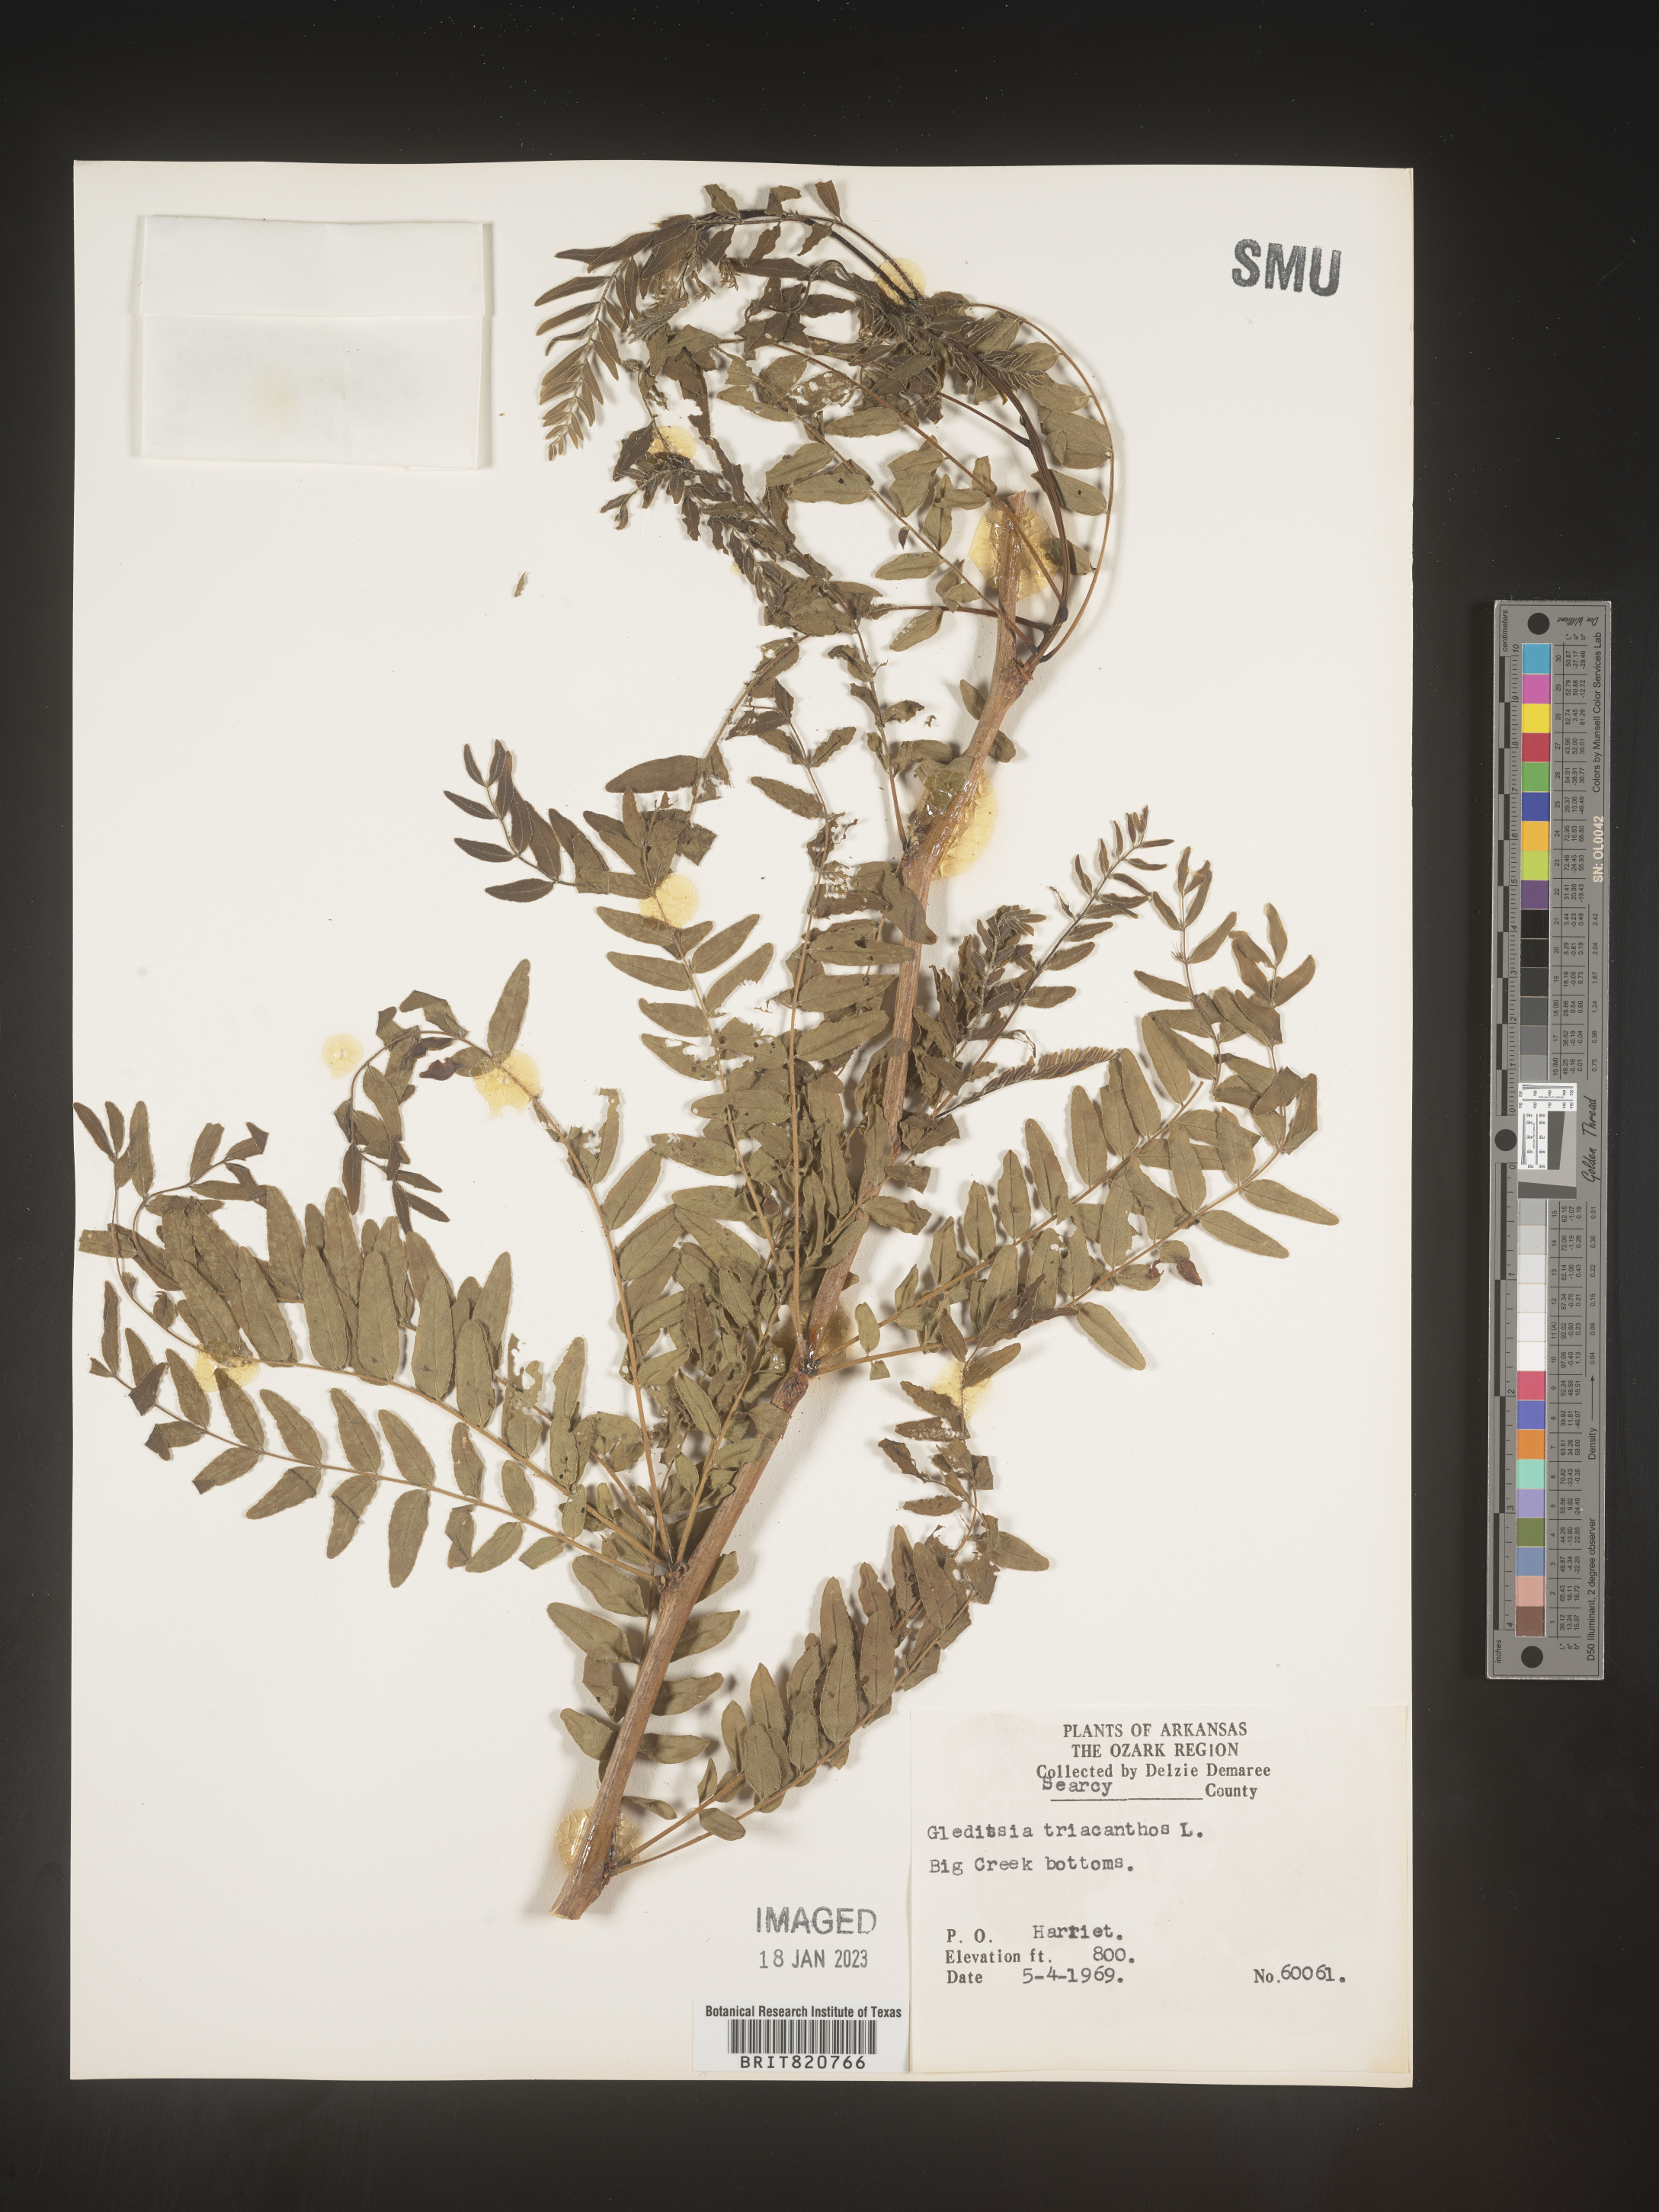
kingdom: Plantae
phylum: Tracheophyta
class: Magnoliopsida
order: Fabales
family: Fabaceae
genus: Gleditsia
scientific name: Gleditsia triacanthos
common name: Common honeylocust
